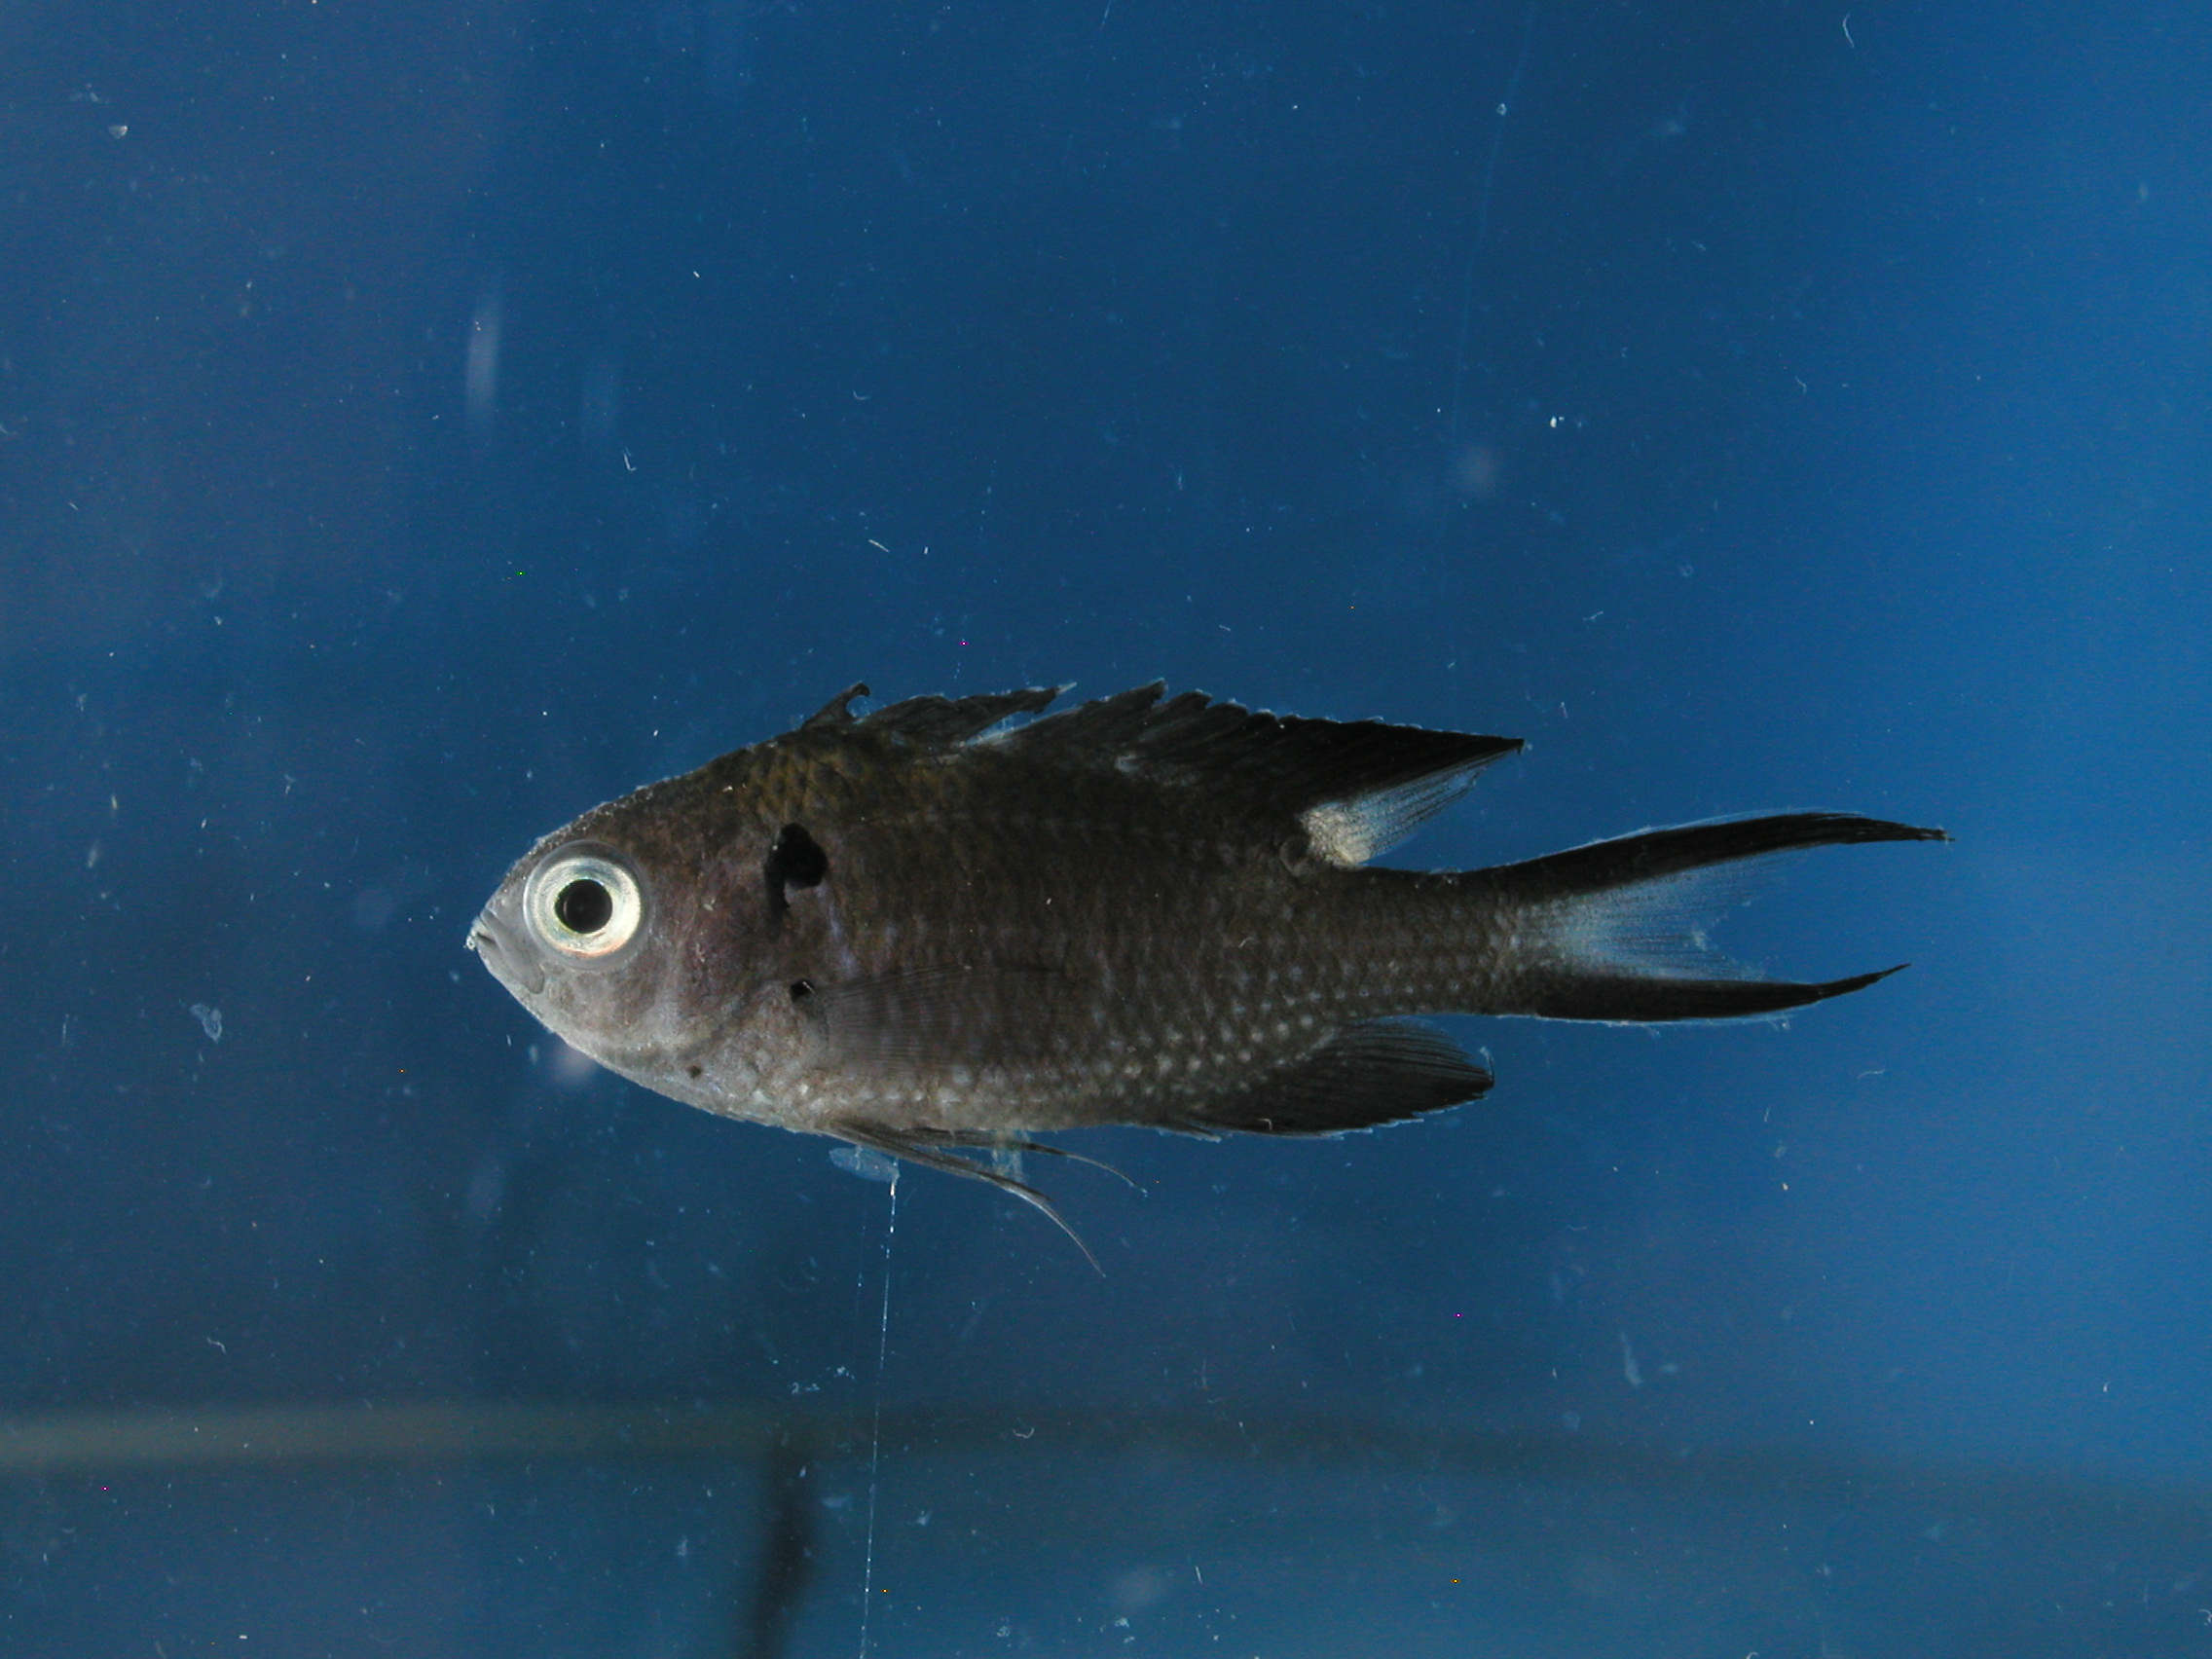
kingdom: Animalia
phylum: Chordata
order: Perciformes
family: Pomacentridae
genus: Neopomacentrus
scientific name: Neopomacentrus cyanomos
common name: Regal demoiselle
